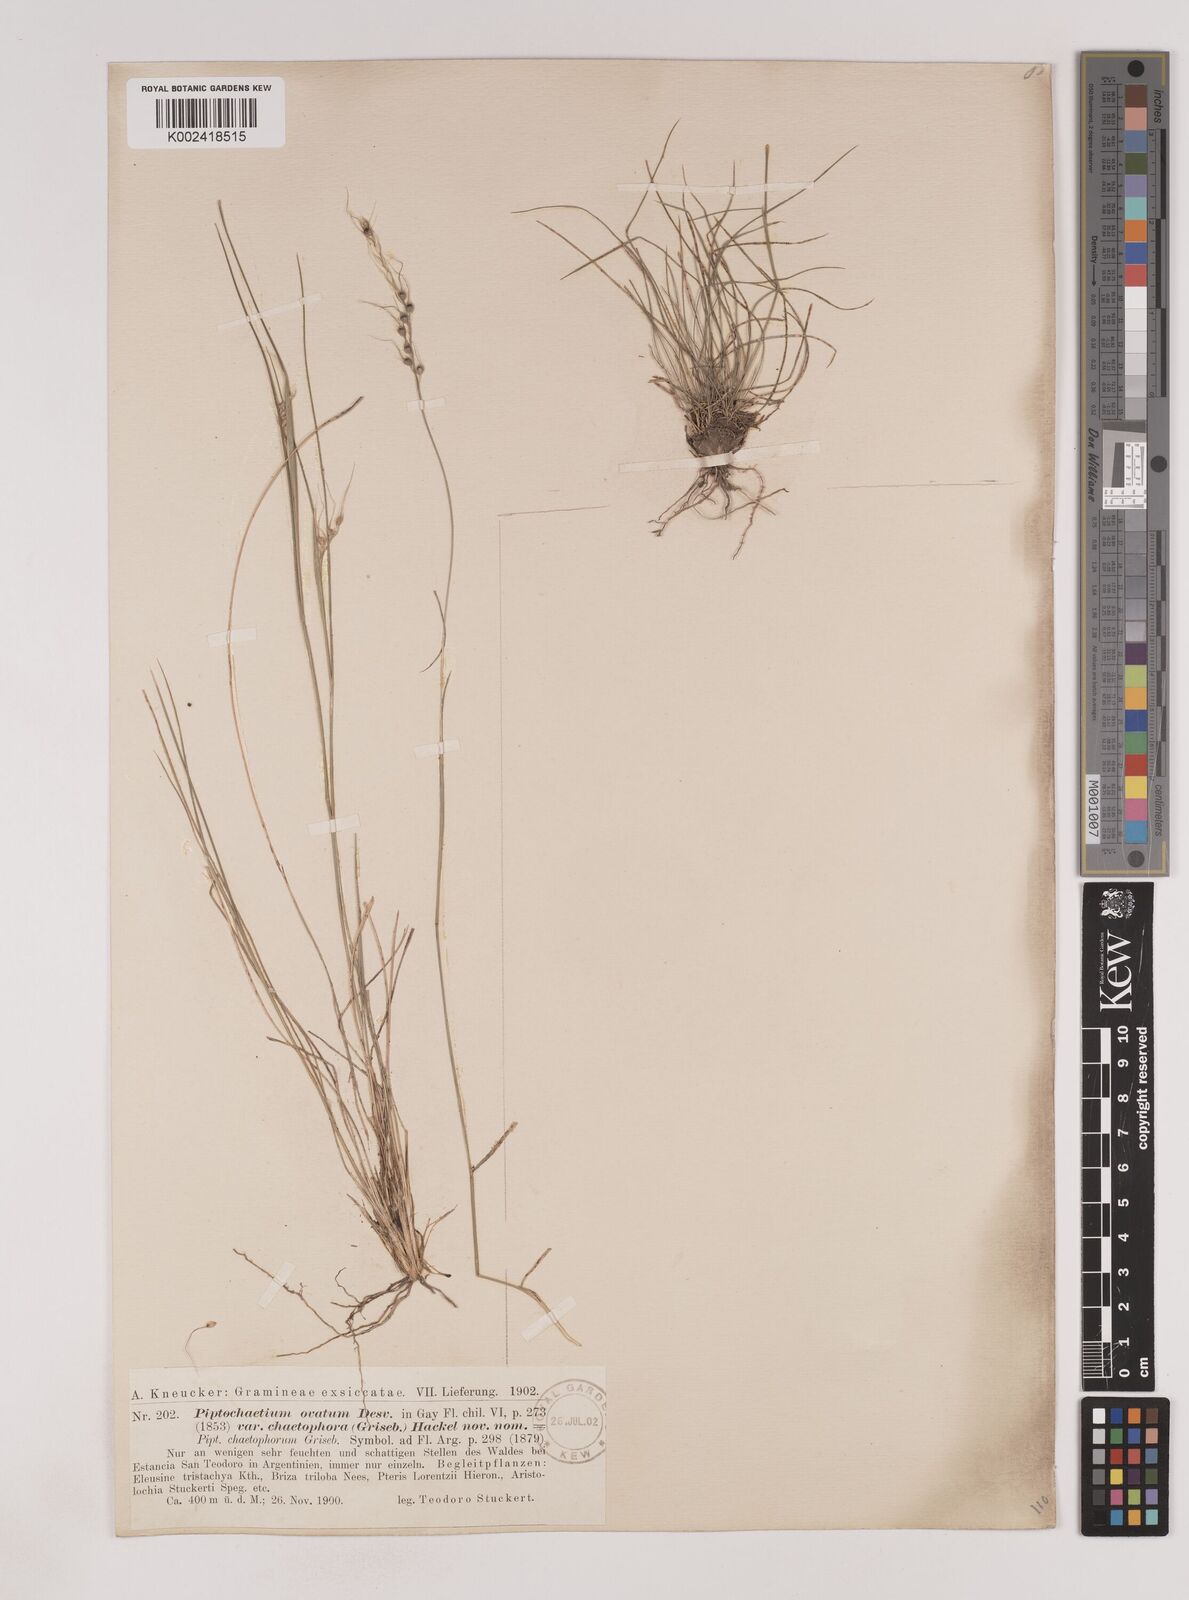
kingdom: Plantae
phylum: Tracheophyta
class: Liliopsida
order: Poales
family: Poaceae
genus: Piptochaetium
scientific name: Piptochaetium stipoides
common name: Purple speargrass
